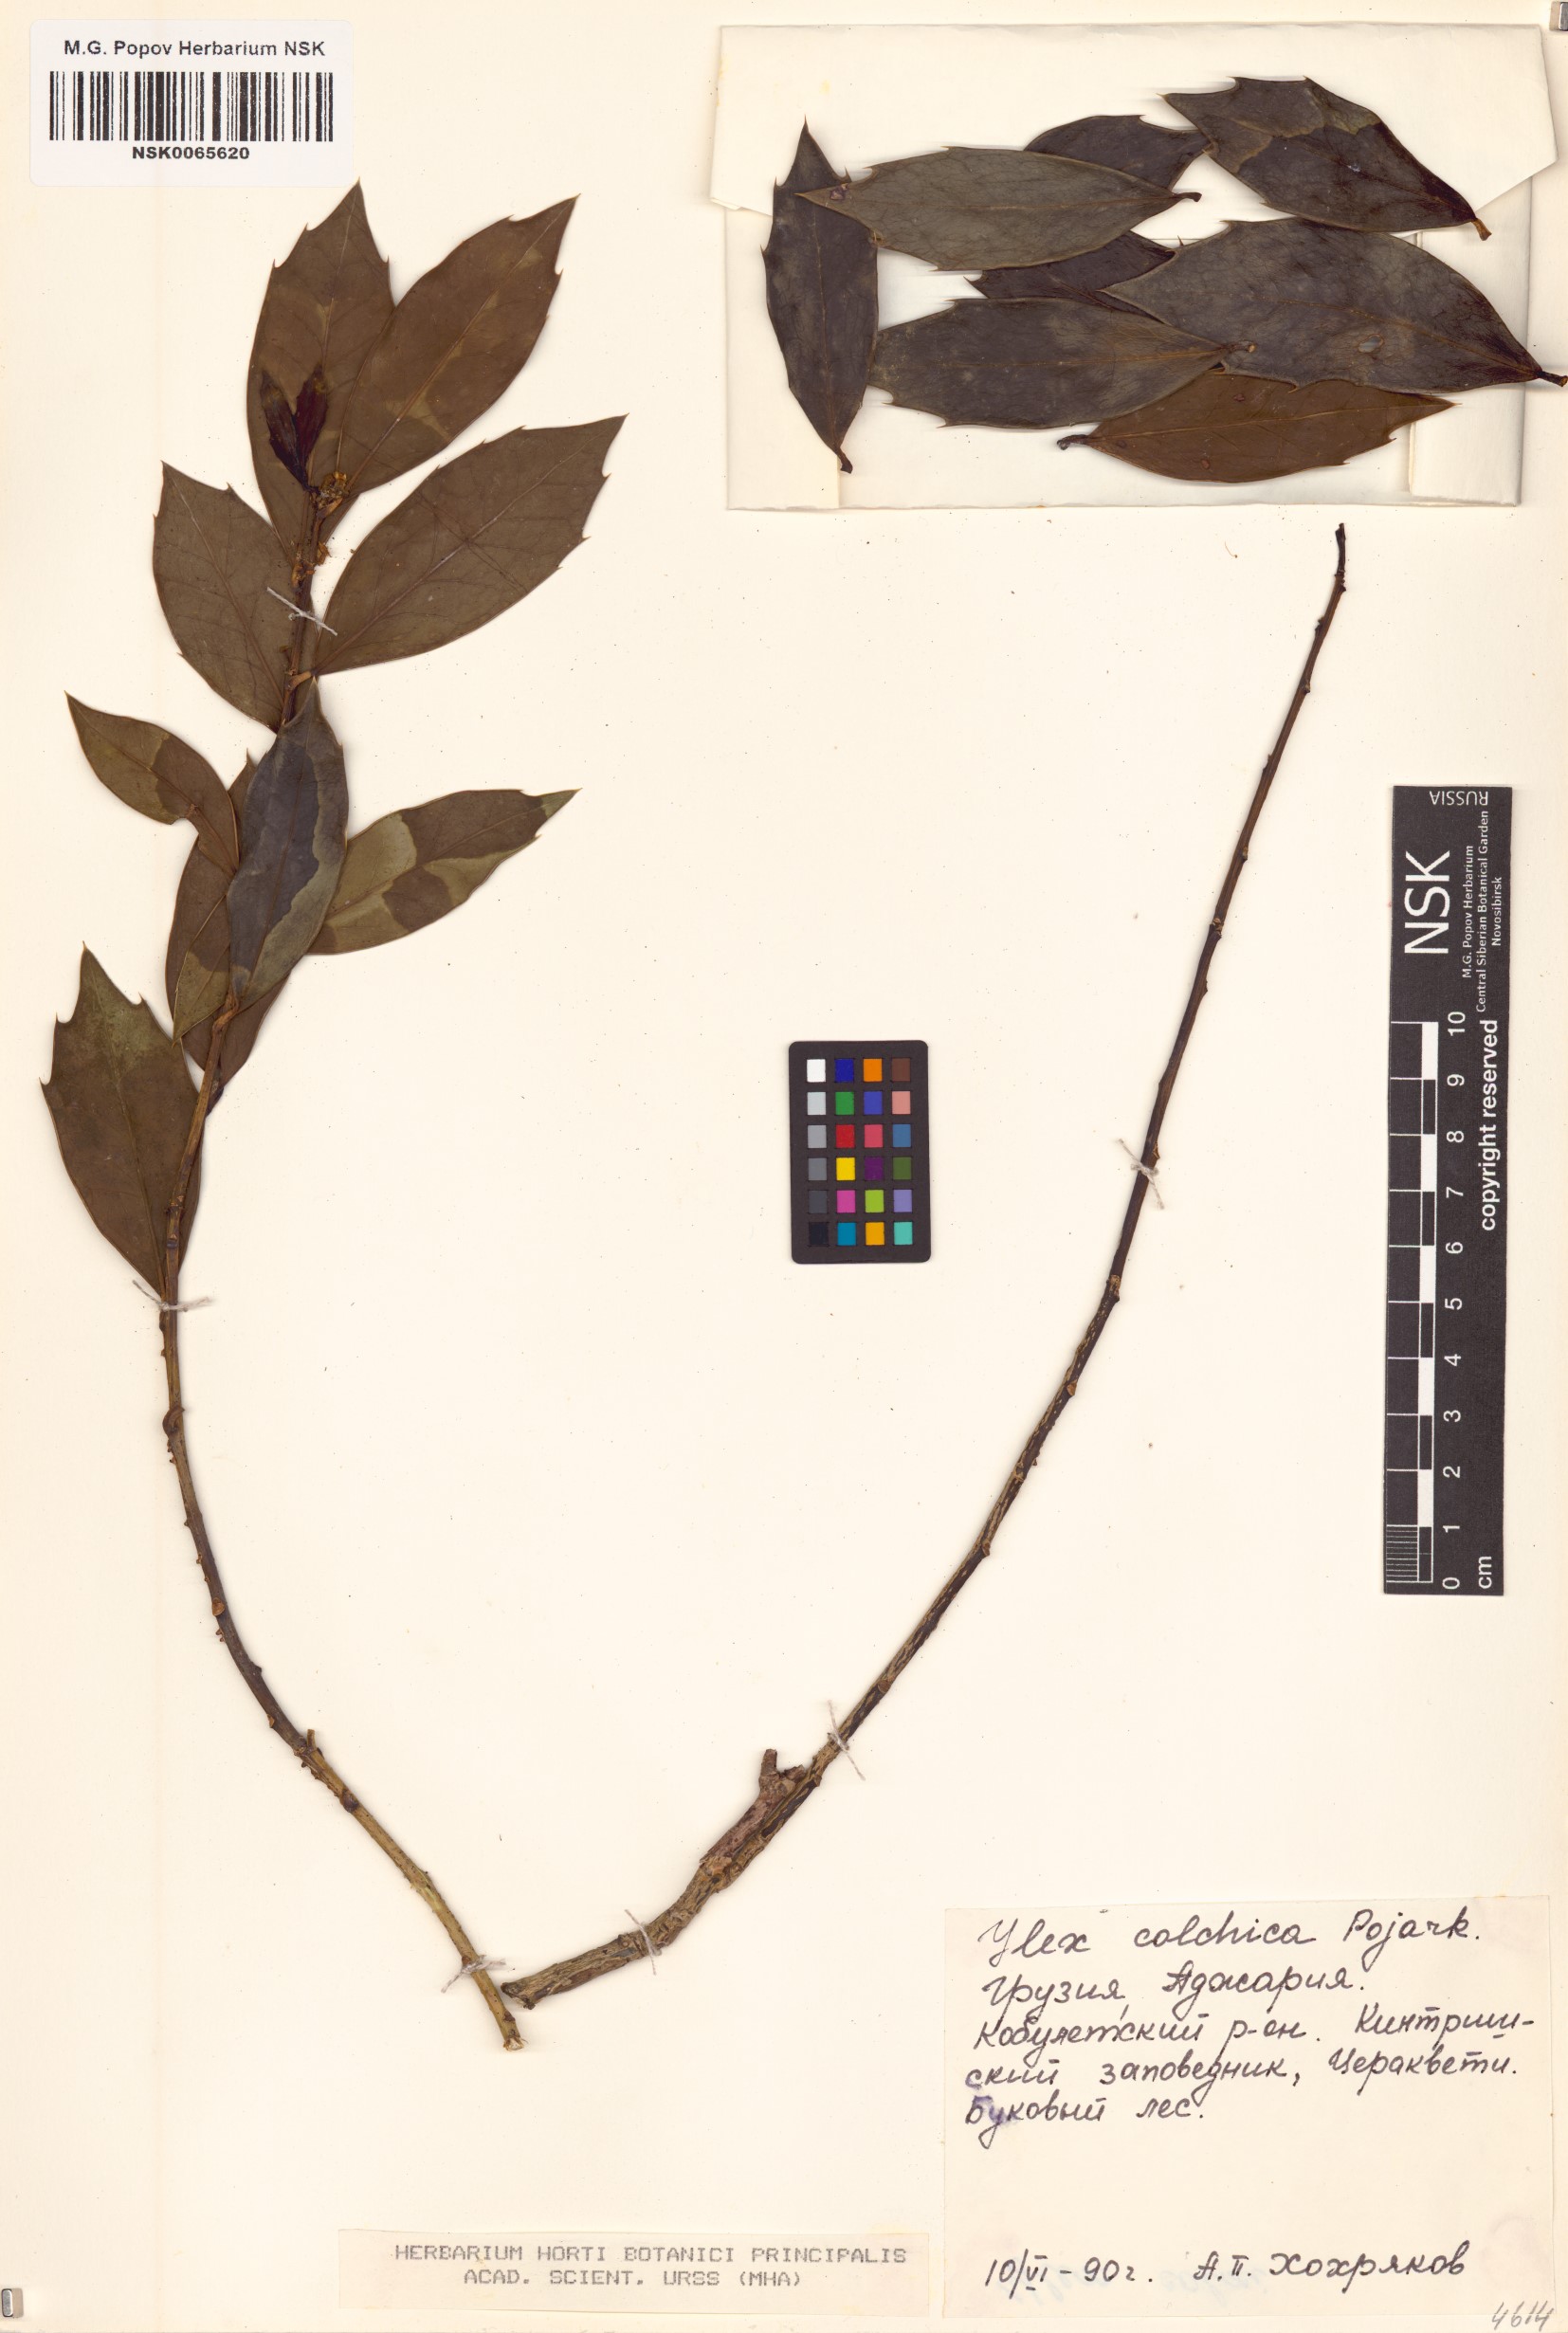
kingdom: Plantae
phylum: Tracheophyta
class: Magnoliopsida
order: Aquifoliales
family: Aquifoliaceae
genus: Ilex
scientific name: Ilex colchica
